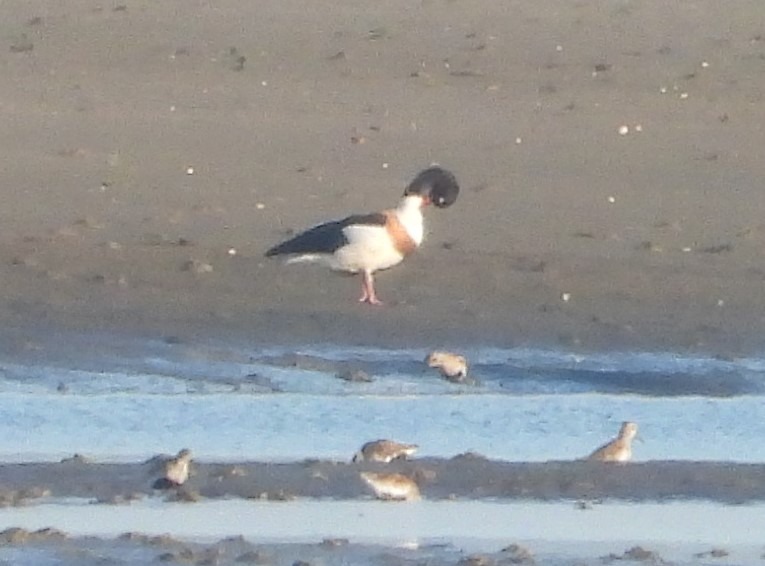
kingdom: Animalia
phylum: Chordata
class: Aves
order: Anseriformes
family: Anatidae
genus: Tadorna
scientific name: Tadorna tadorna
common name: Gravand
